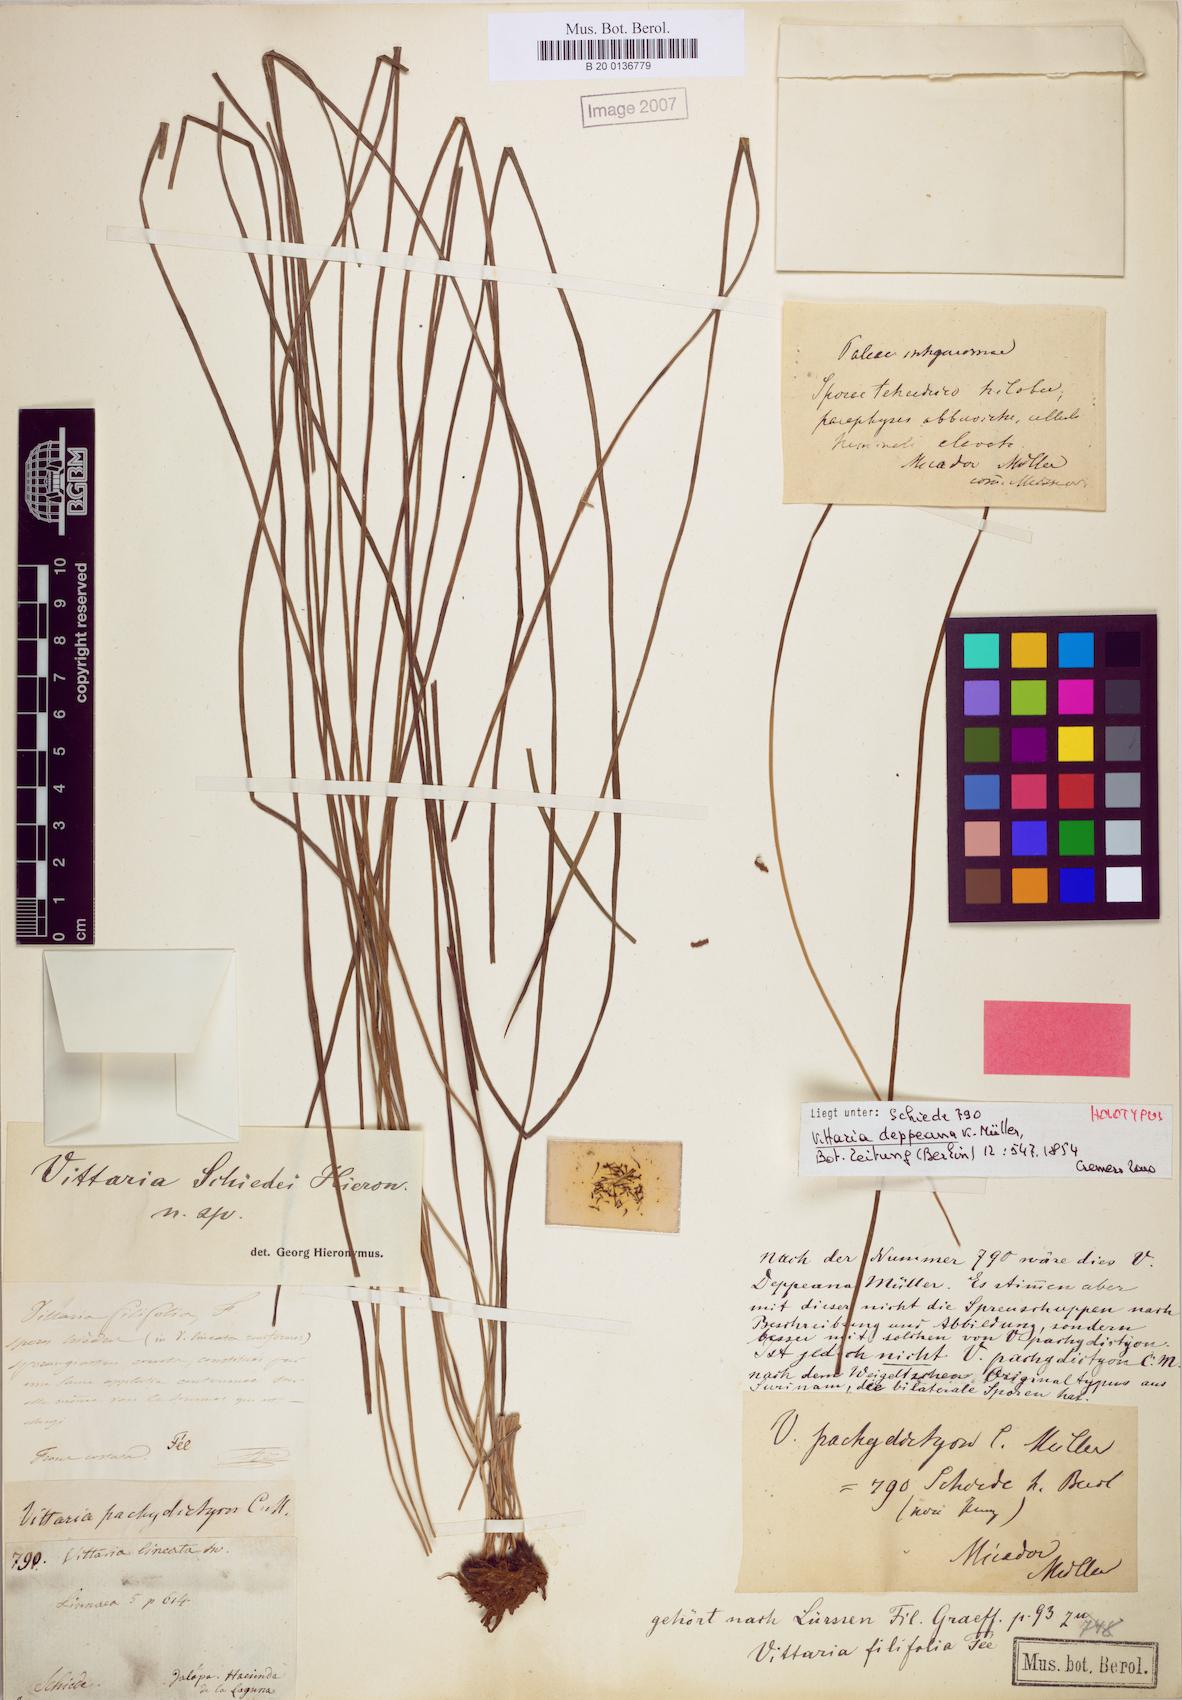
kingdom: Plantae
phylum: Tracheophyta
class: Polypodiopsida
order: Polypodiales
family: Pteridaceae
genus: Vittaria
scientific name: Vittaria graminifolia
